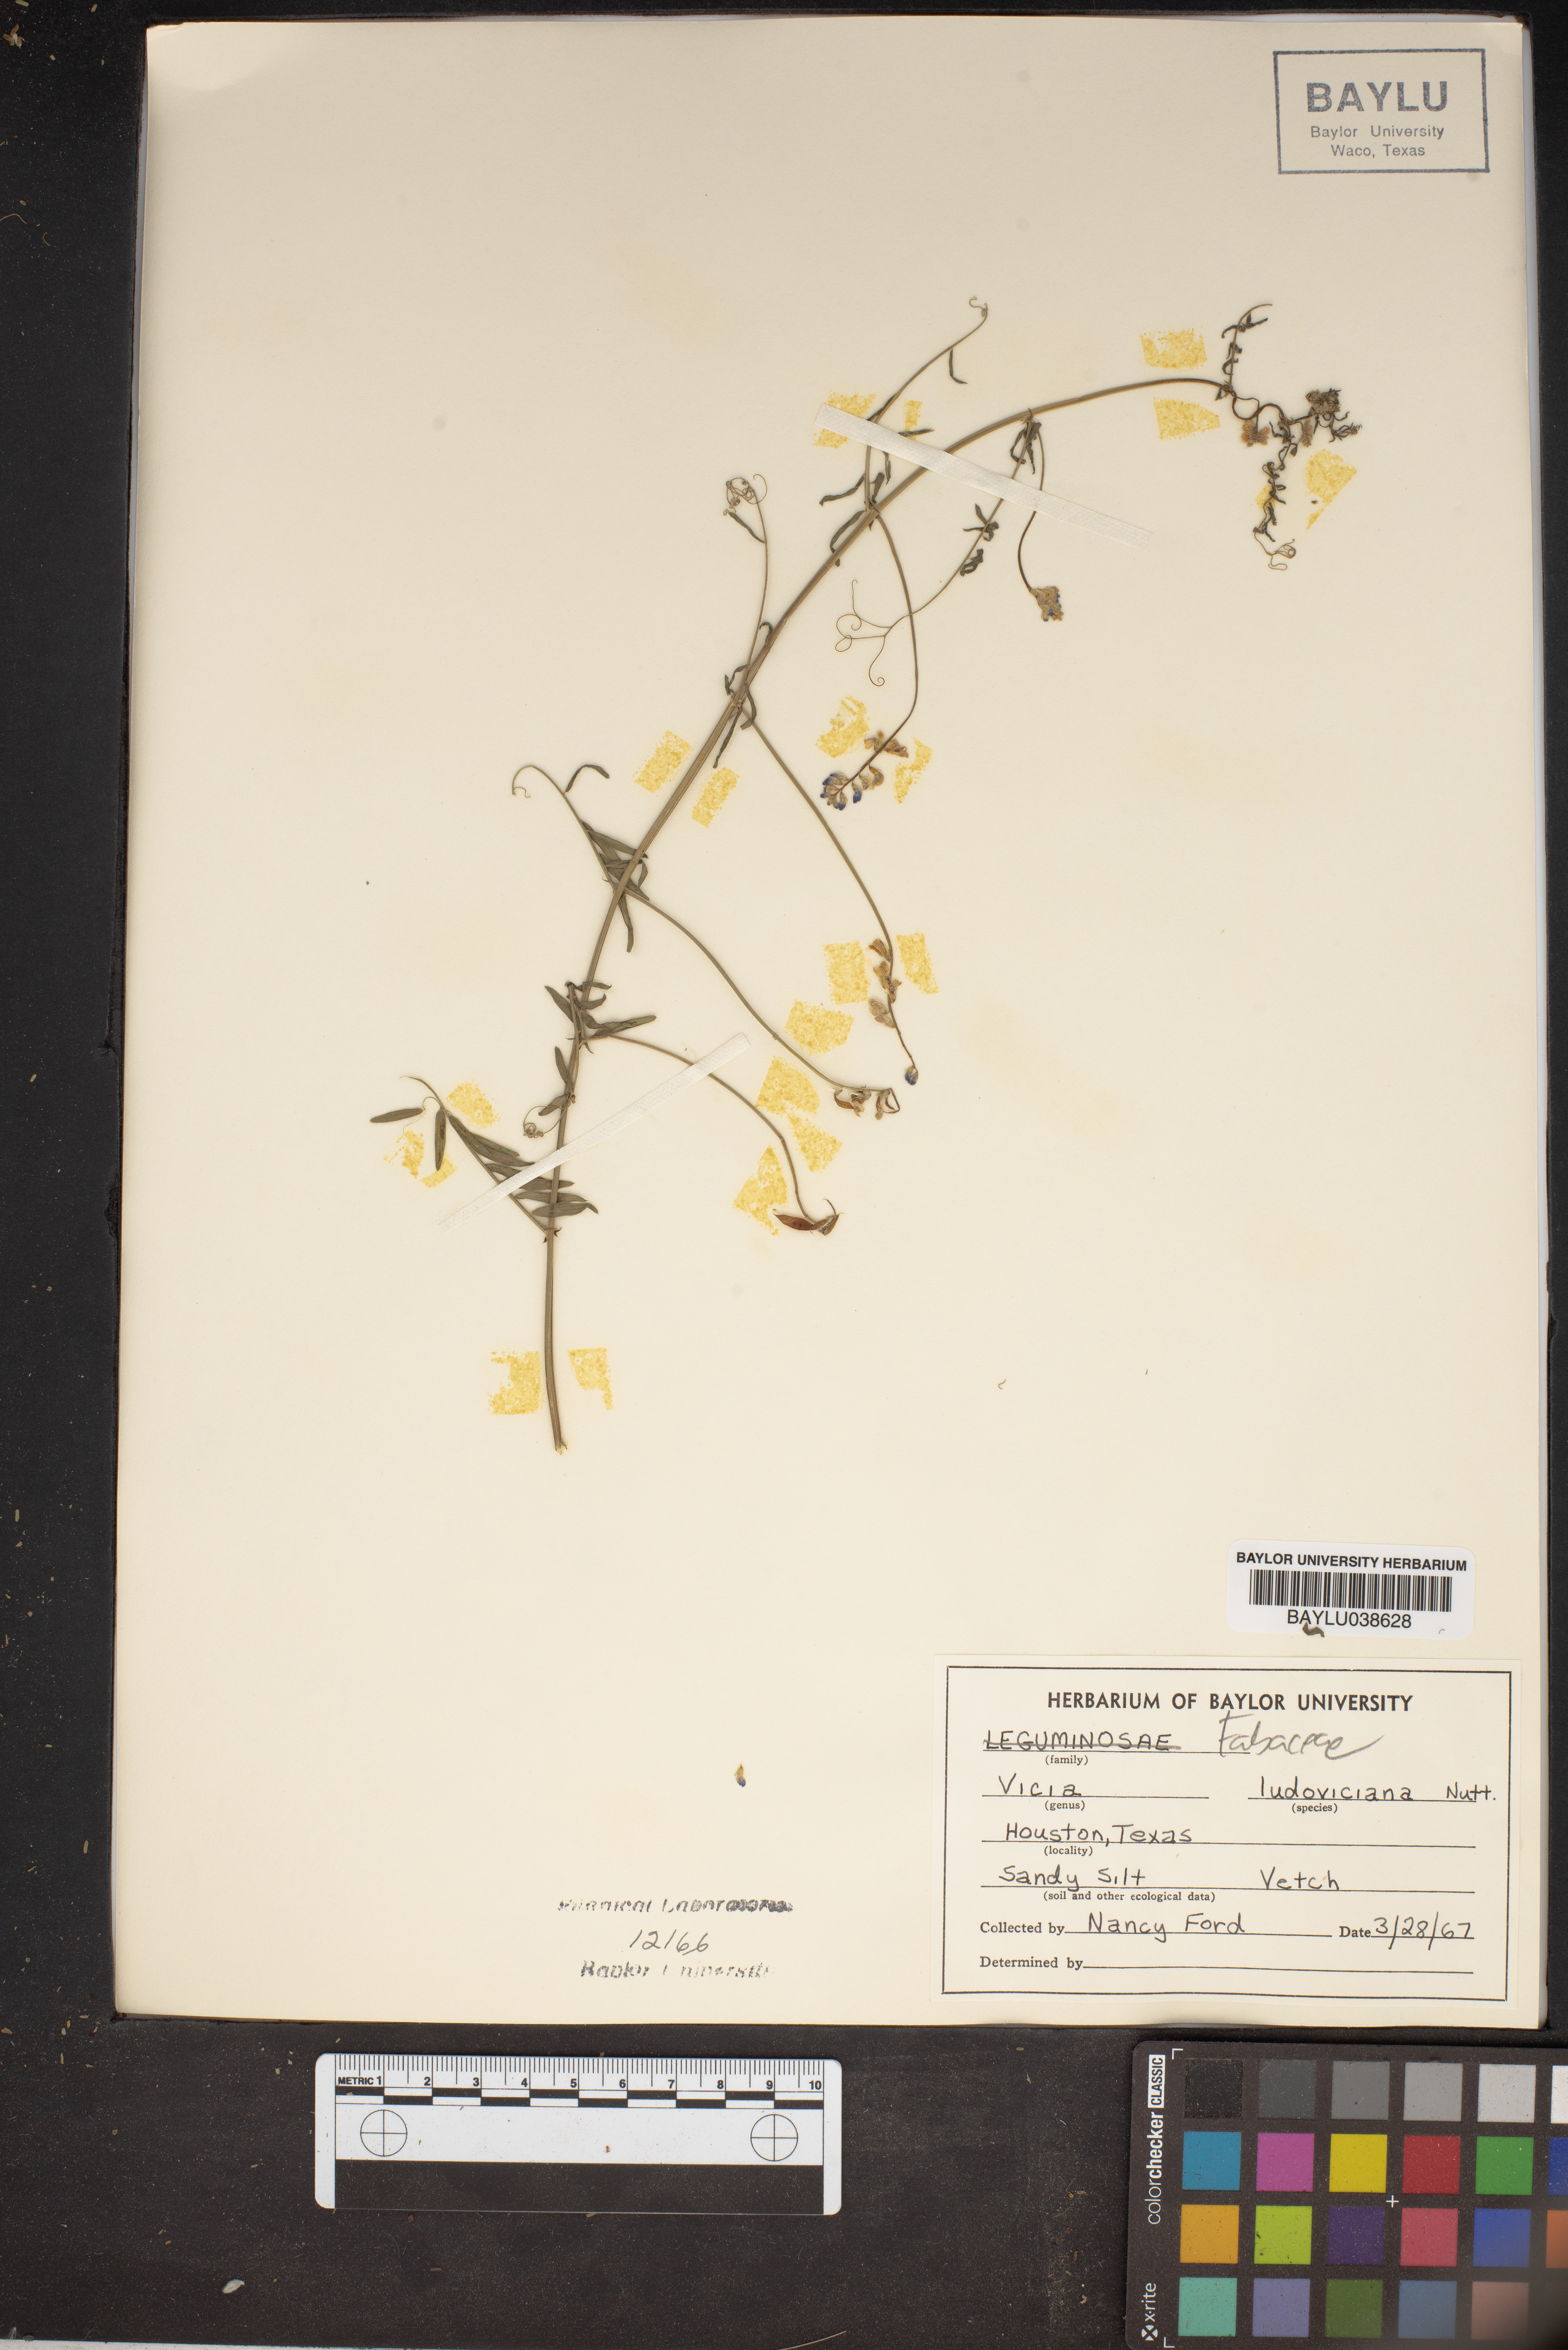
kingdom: Plantae
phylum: Tracheophyta
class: Magnoliopsida
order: Fabales
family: Fabaceae
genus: Vicia
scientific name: Vicia ludoviciana
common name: Louisiana vetch
